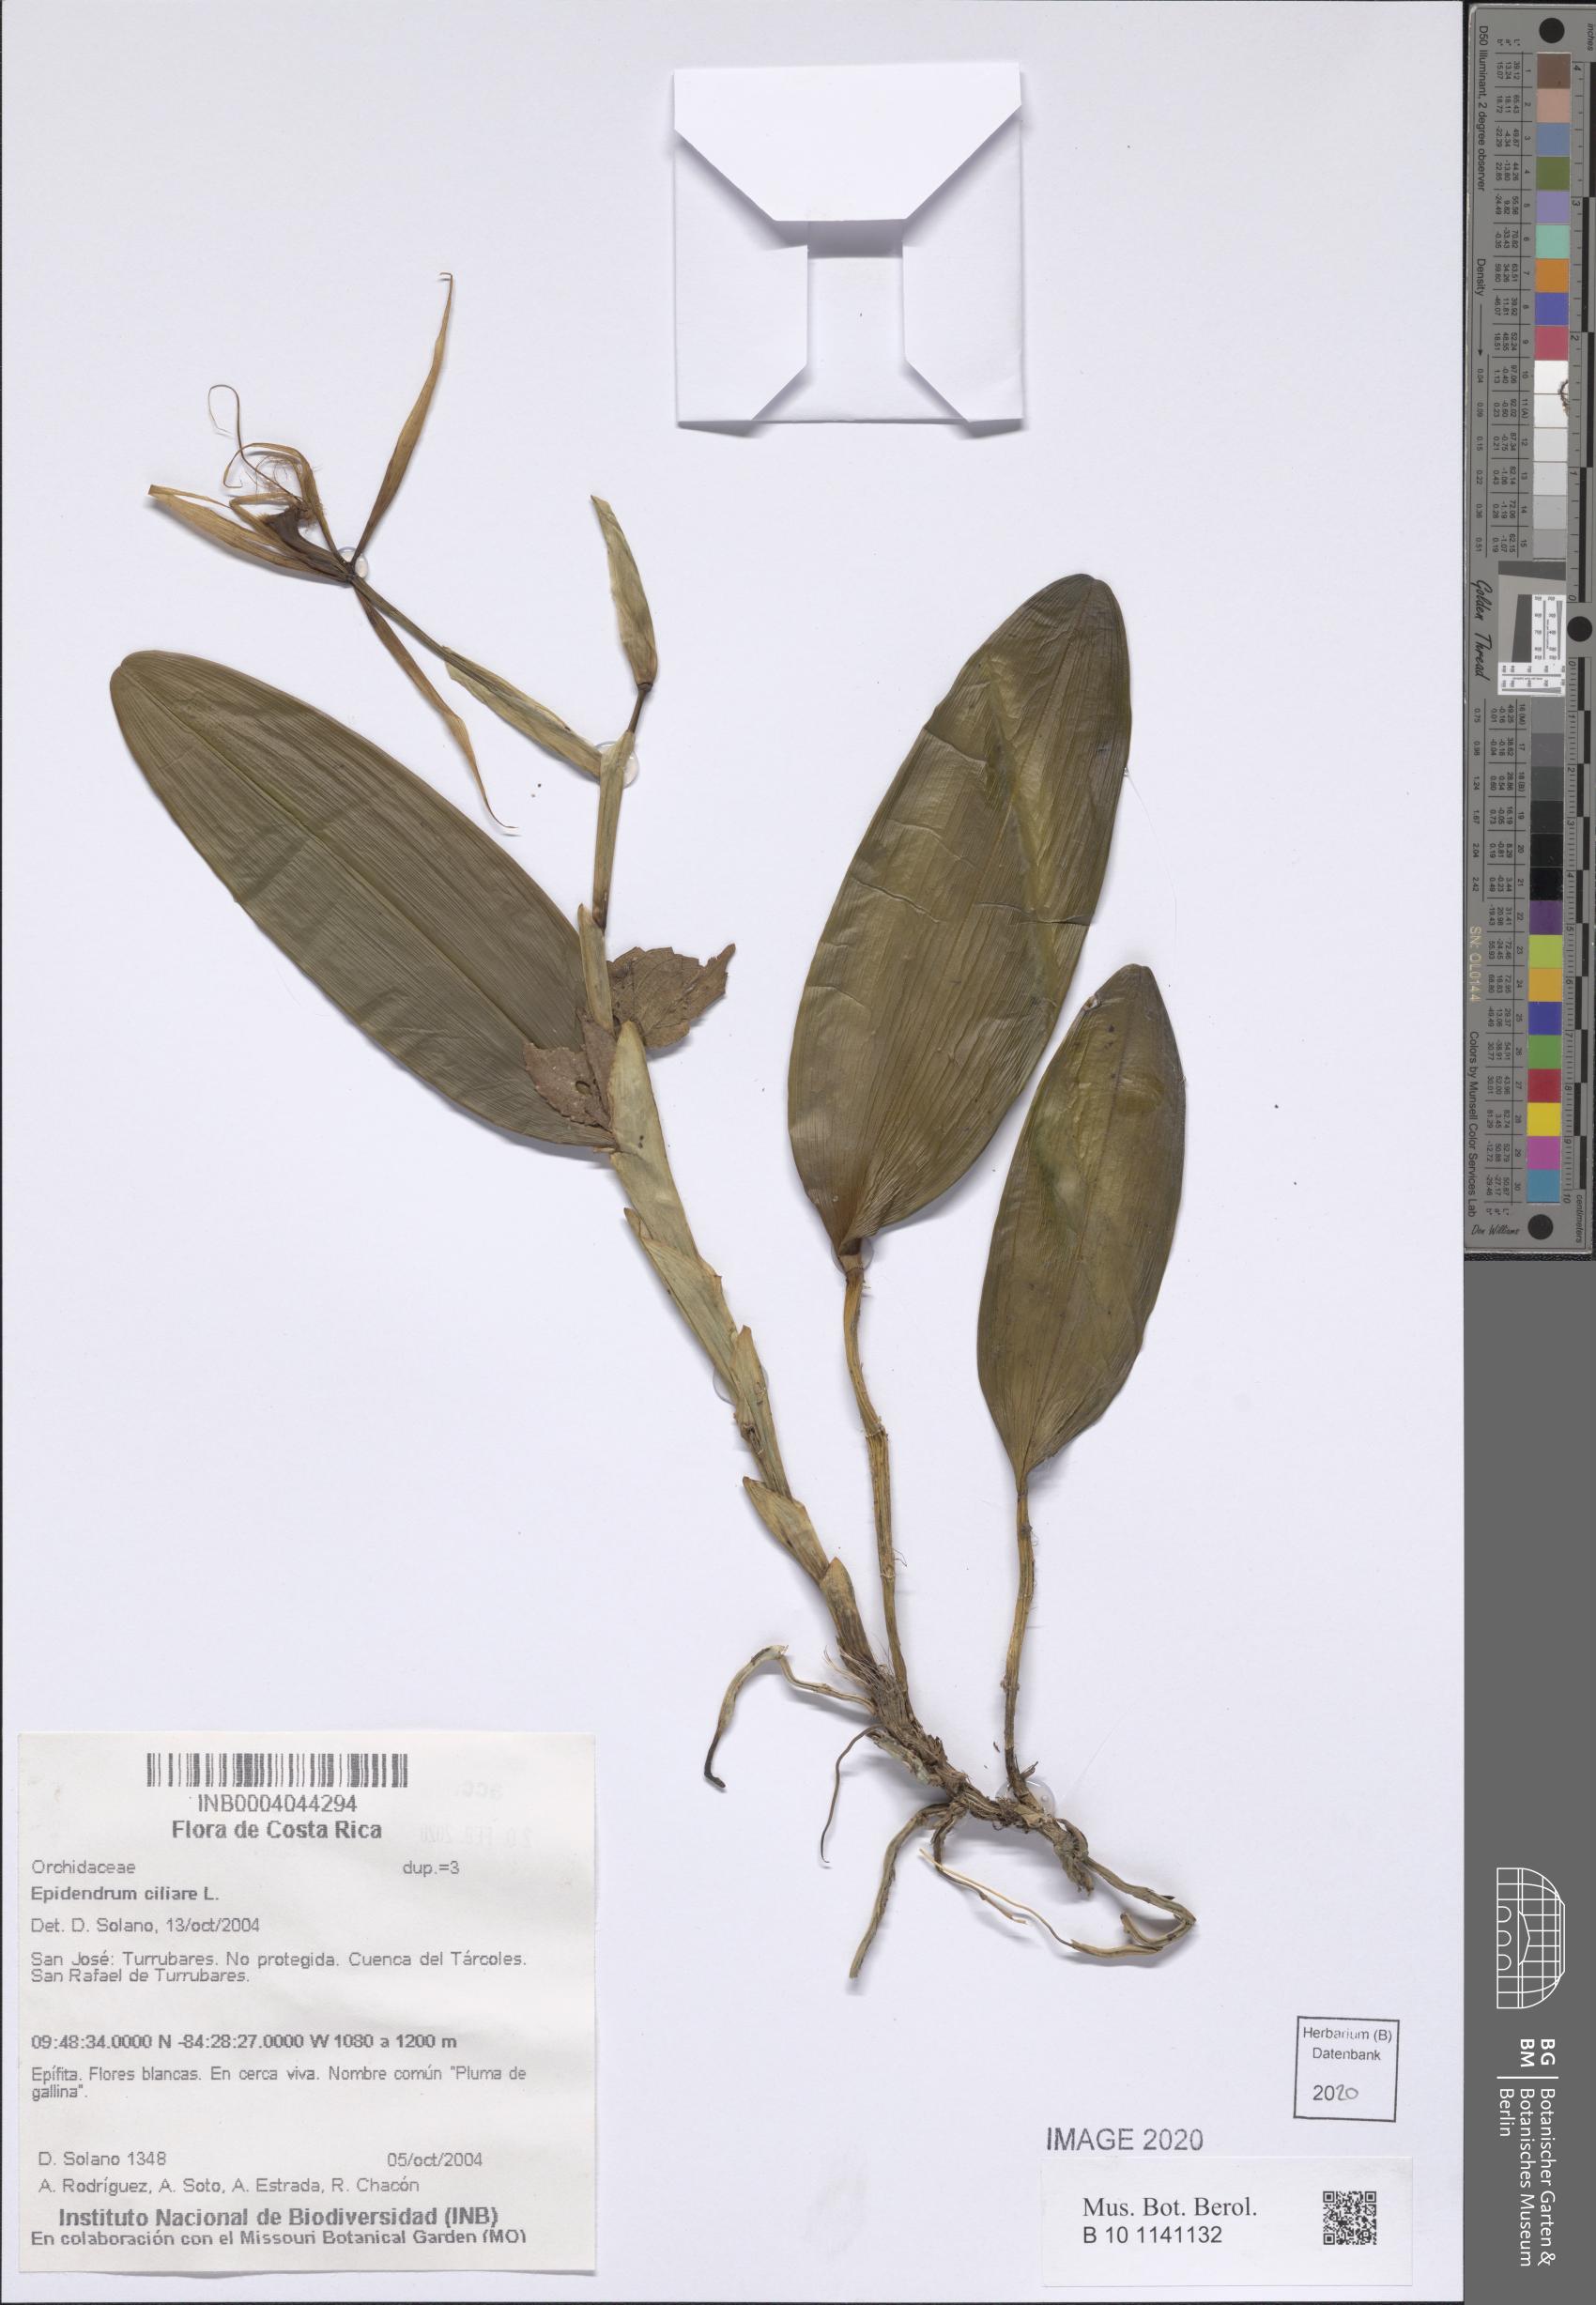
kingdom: Plantae
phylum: Tracheophyta
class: Liliopsida
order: Asparagales
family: Orchidaceae
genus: Epidendrum
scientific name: Epidendrum ciliare
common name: Eyelash orchid
